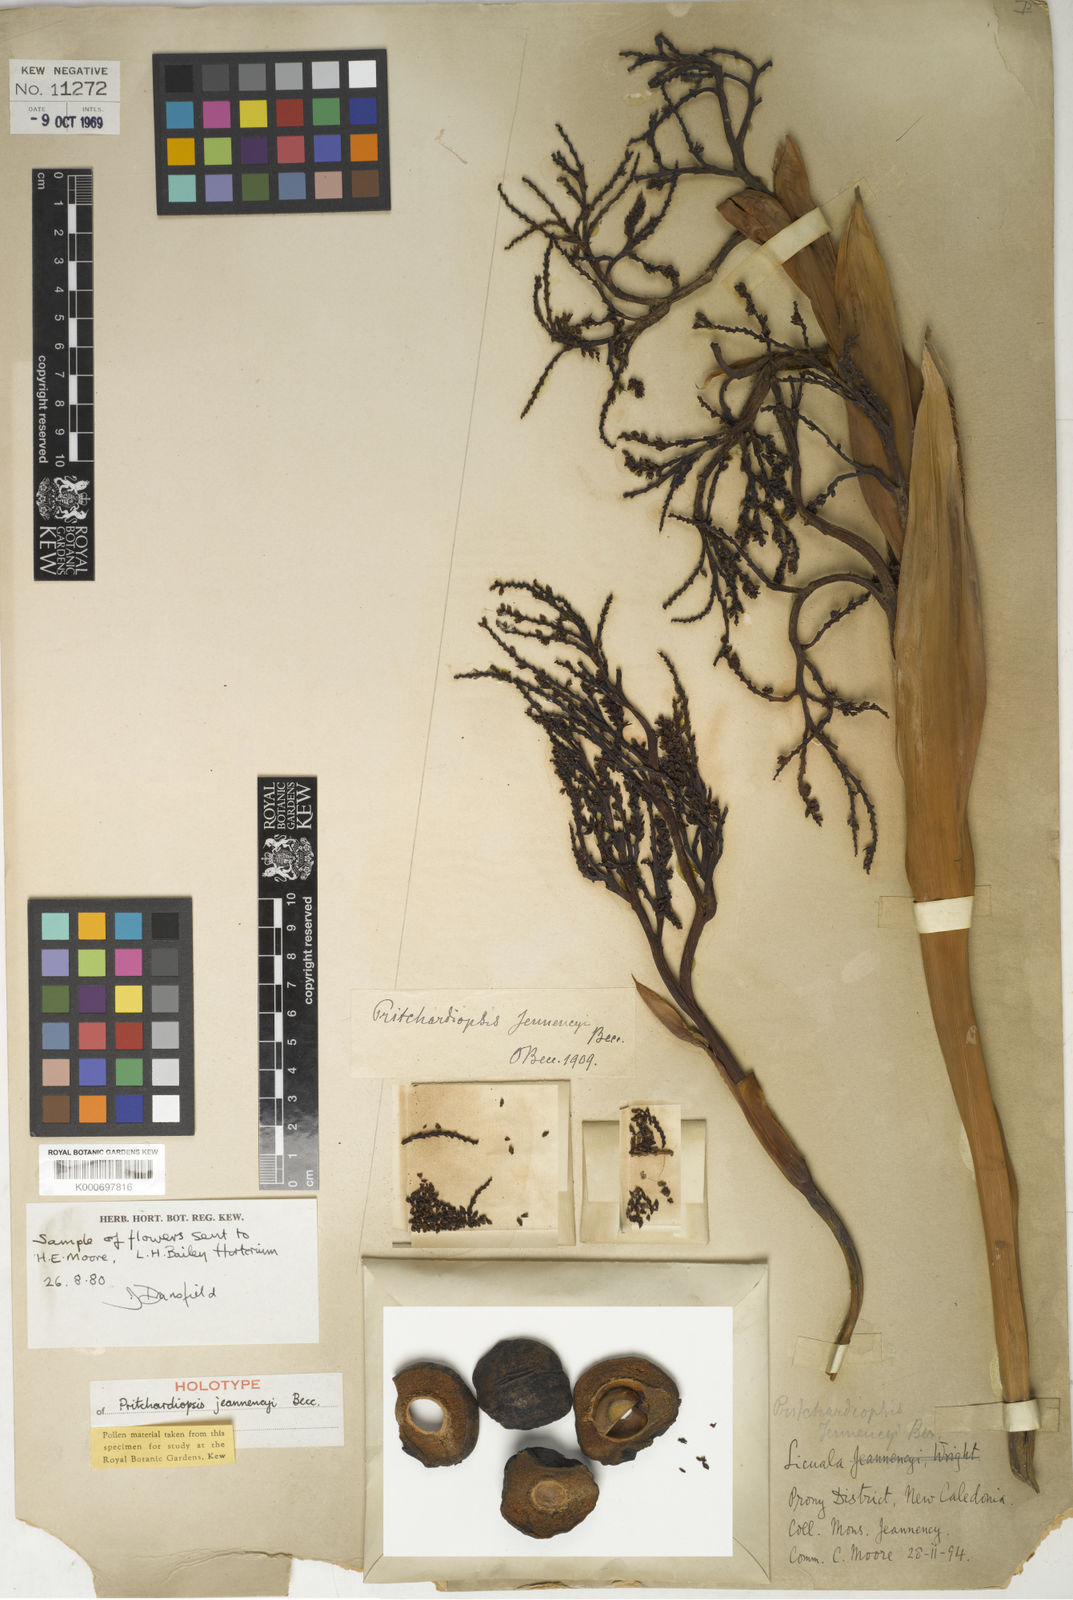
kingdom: Plantae
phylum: Tracheophyta
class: Liliopsida
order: Arecales
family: Arecaceae
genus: Saribus
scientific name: Saribus jeanneneyi
